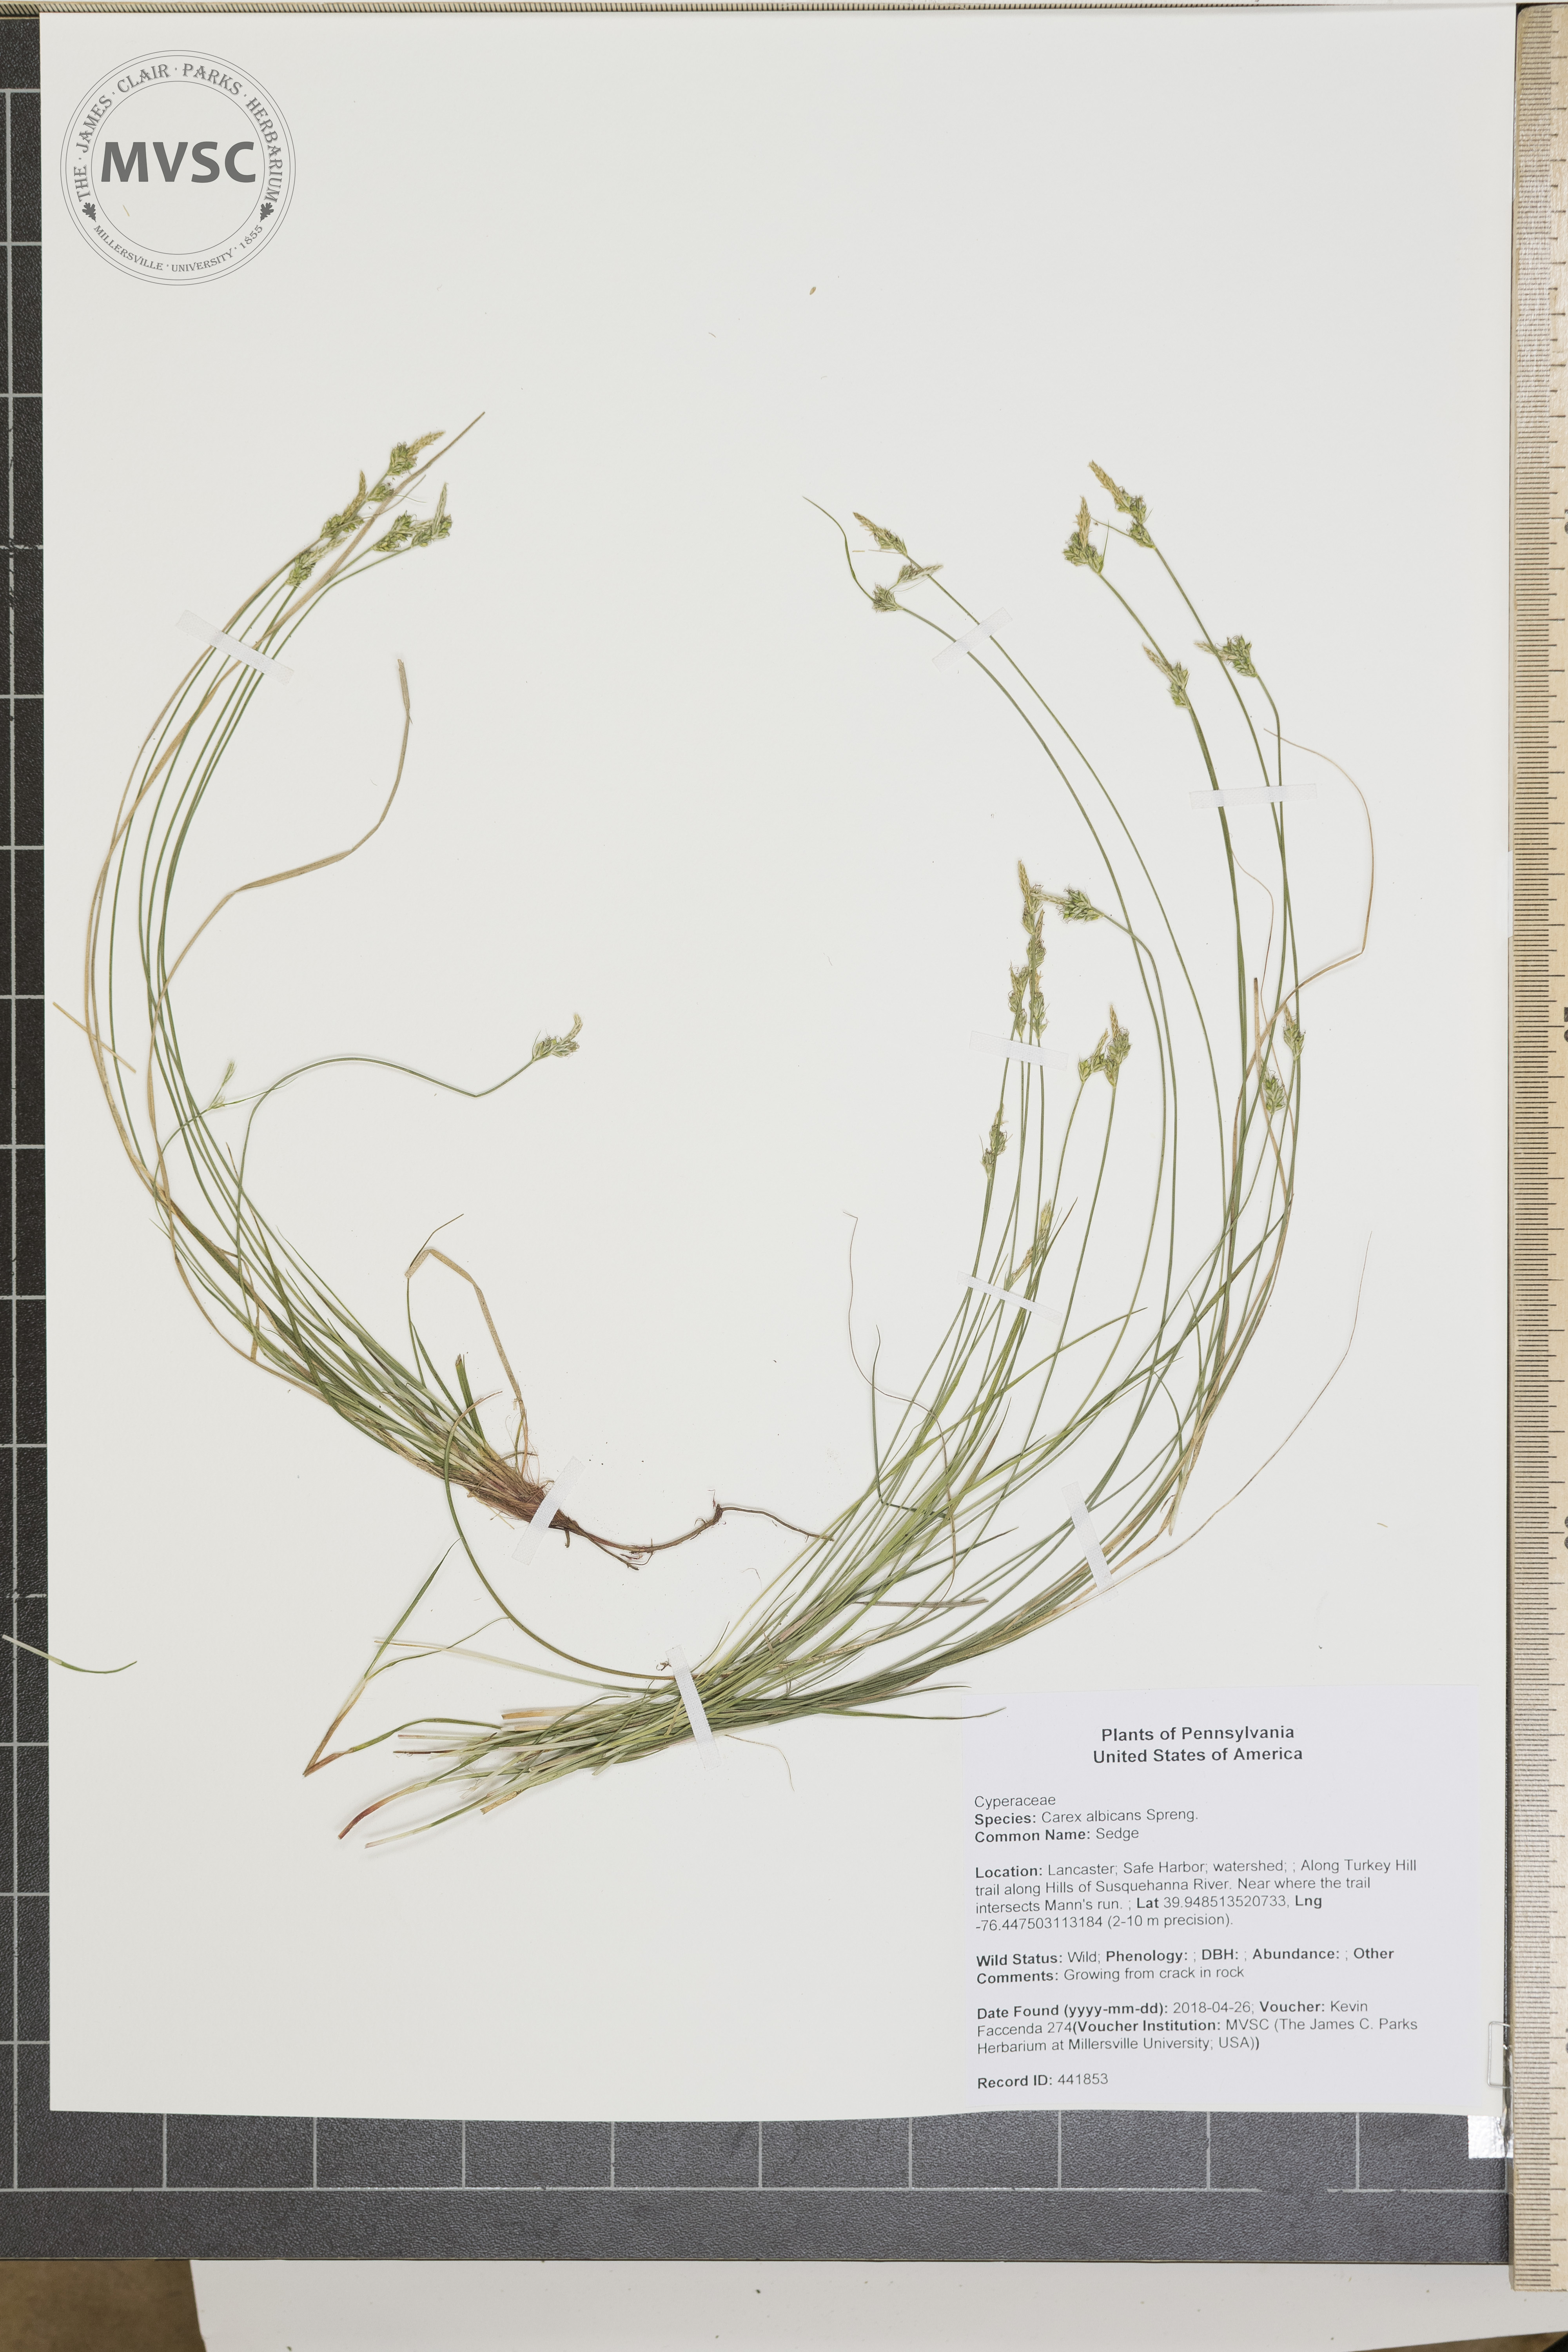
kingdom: Plantae
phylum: Tracheophyta
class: Liliopsida
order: Poales
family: Cyperaceae
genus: Carex
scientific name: Carex albicans
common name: Sedge
